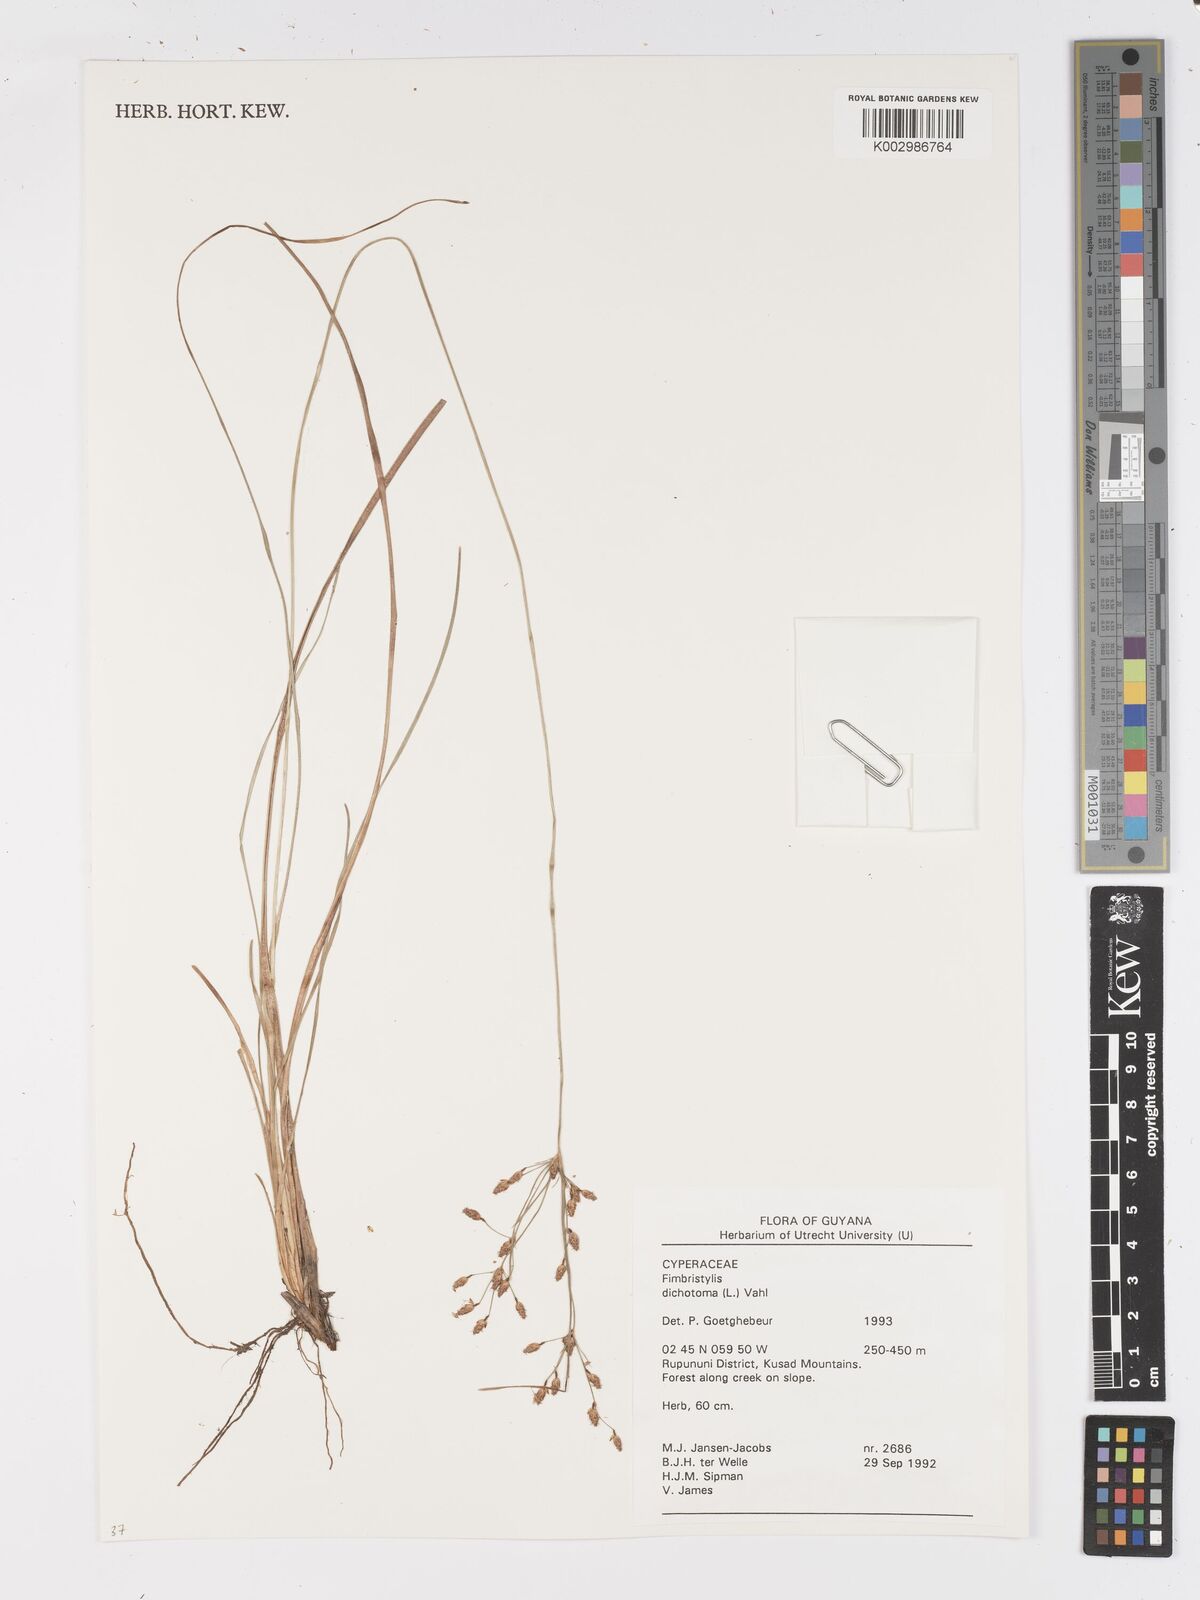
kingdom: Plantae
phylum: Tracheophyta
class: Liliopsida
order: Poales
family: Cyperaceae
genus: Fimbristylis
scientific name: Fimbristylis dichotoma
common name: Forked fimbry
